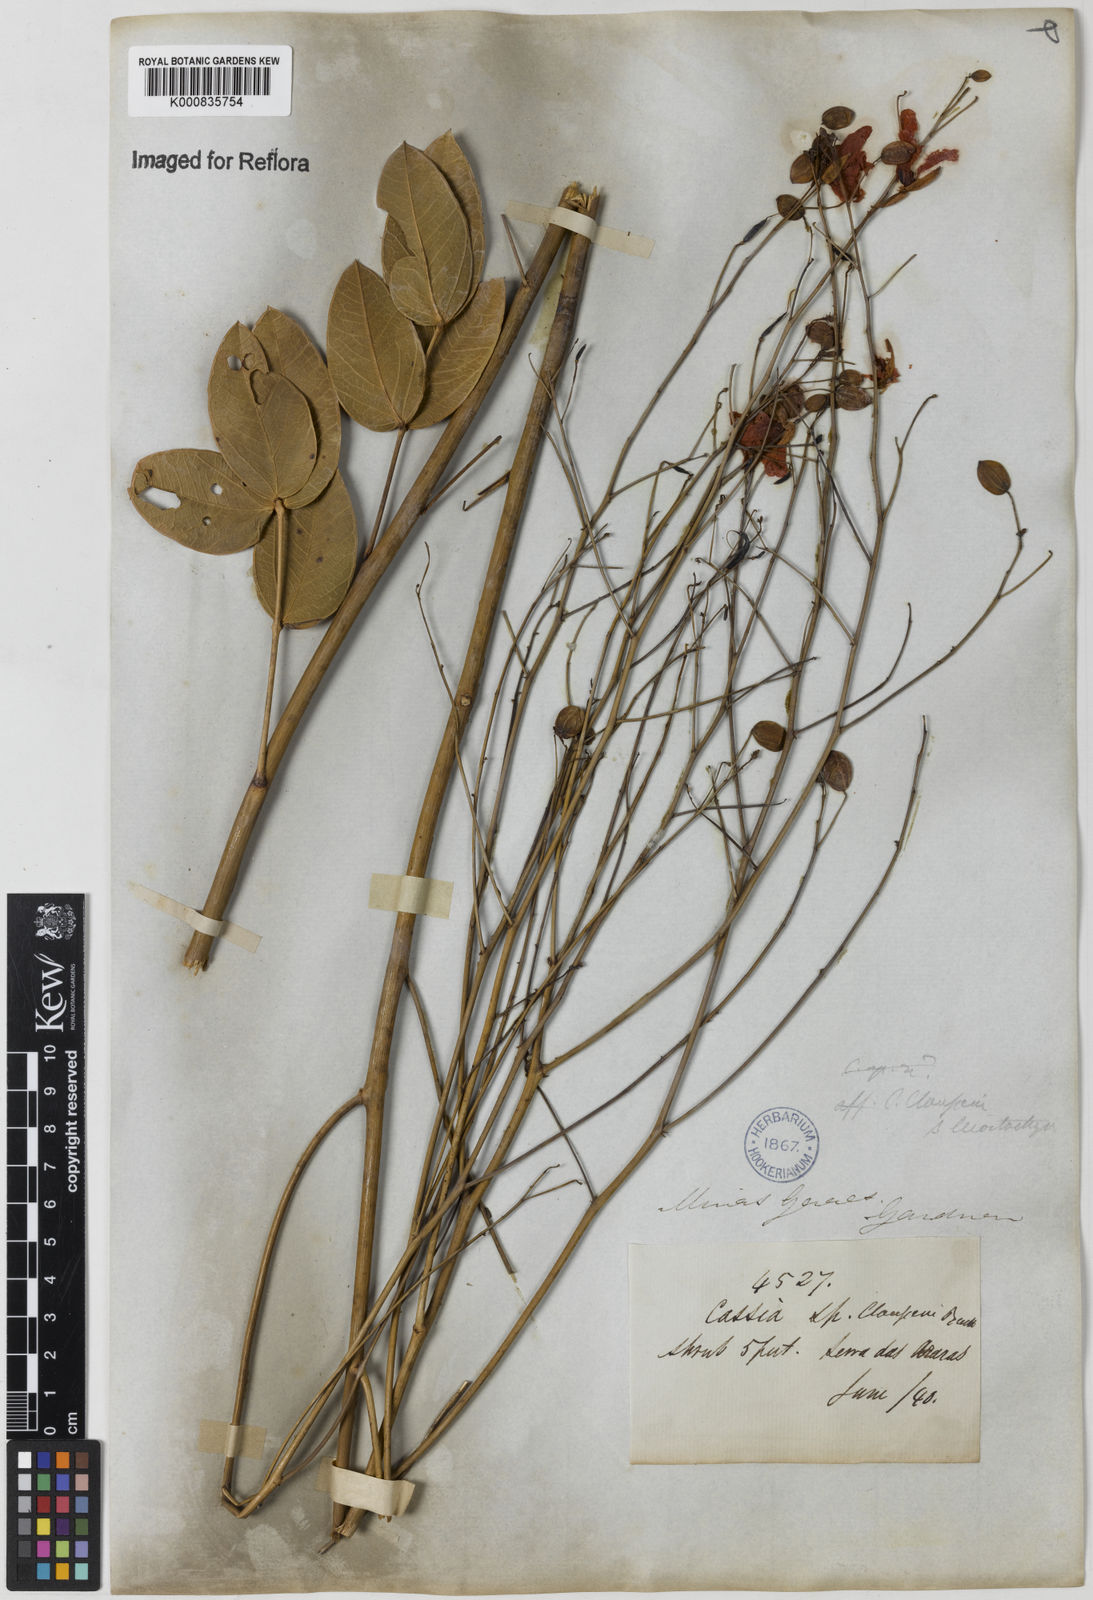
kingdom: Plantae
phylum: Tracheophyta
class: Magnoliopsida
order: Fabales
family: Fabaceae
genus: Chamaecrista
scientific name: Chamaecrista claussenii
